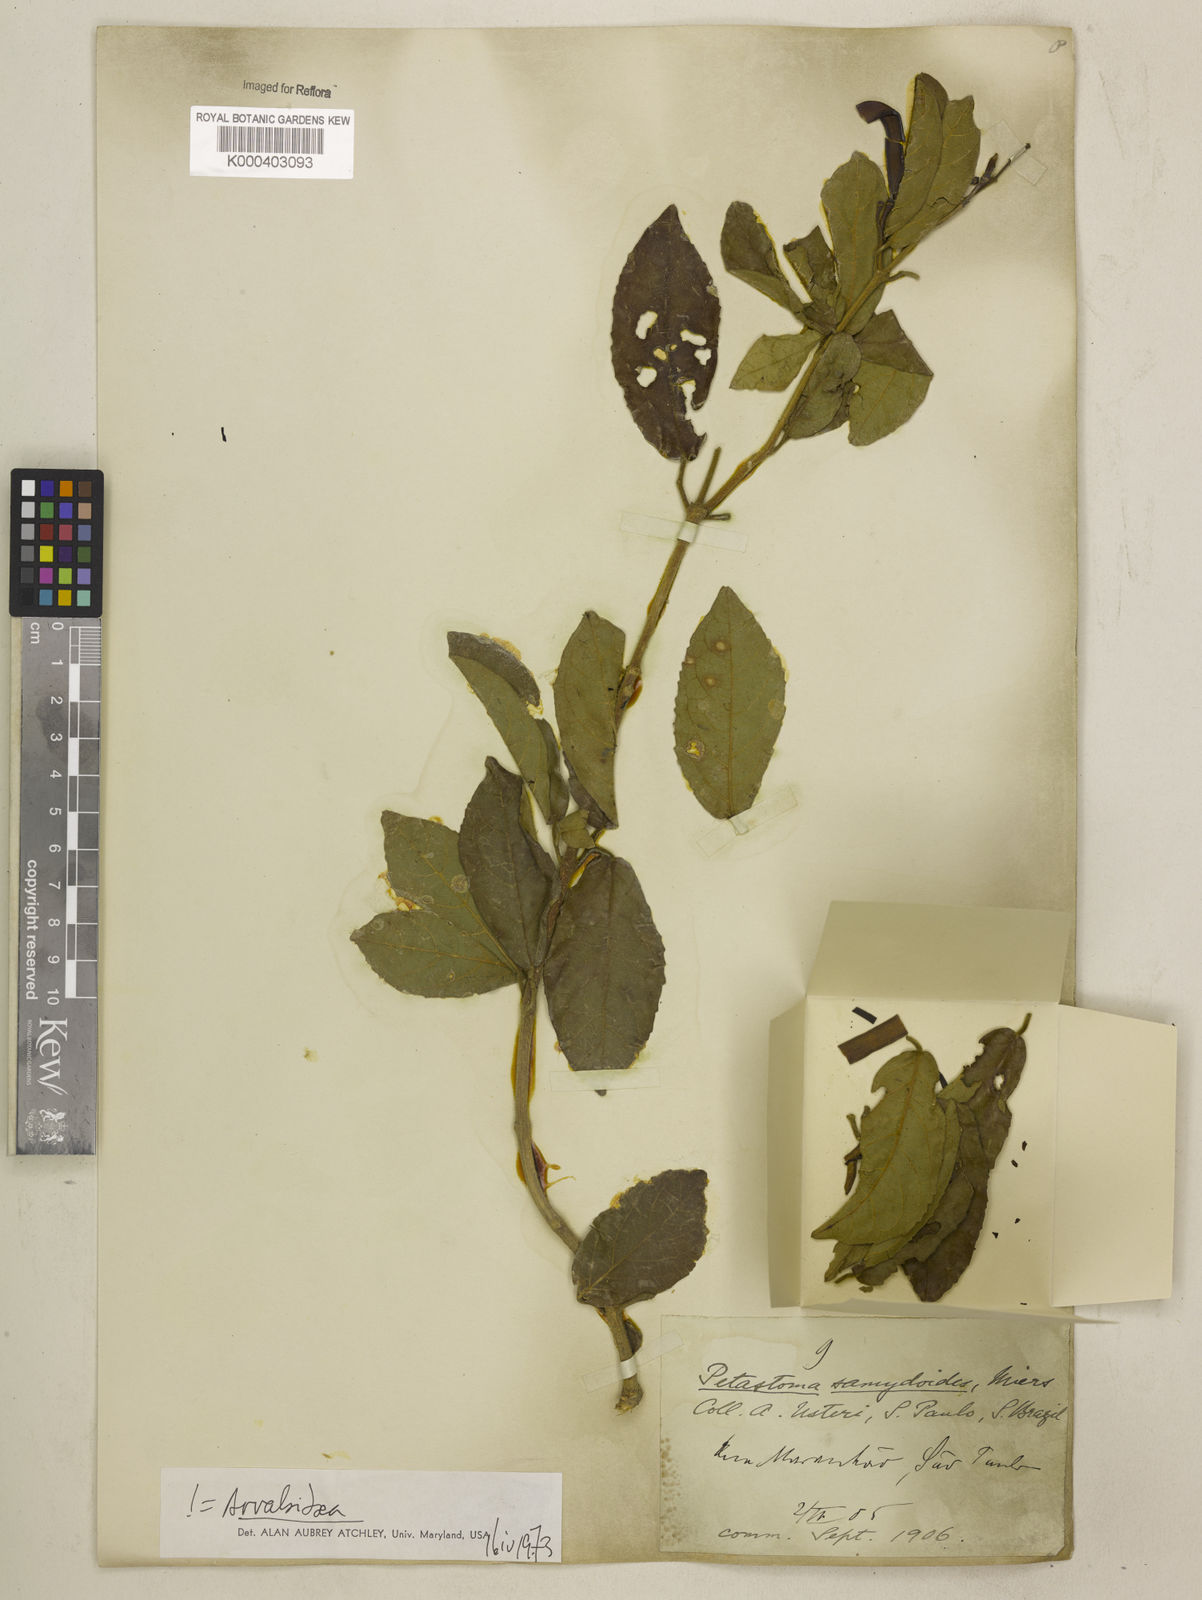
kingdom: Plantae
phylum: Tracheophyta
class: Magnoliopsida
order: Lamiales
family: Bignoniaceae
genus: Fridericia
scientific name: Fridericia samydoides
